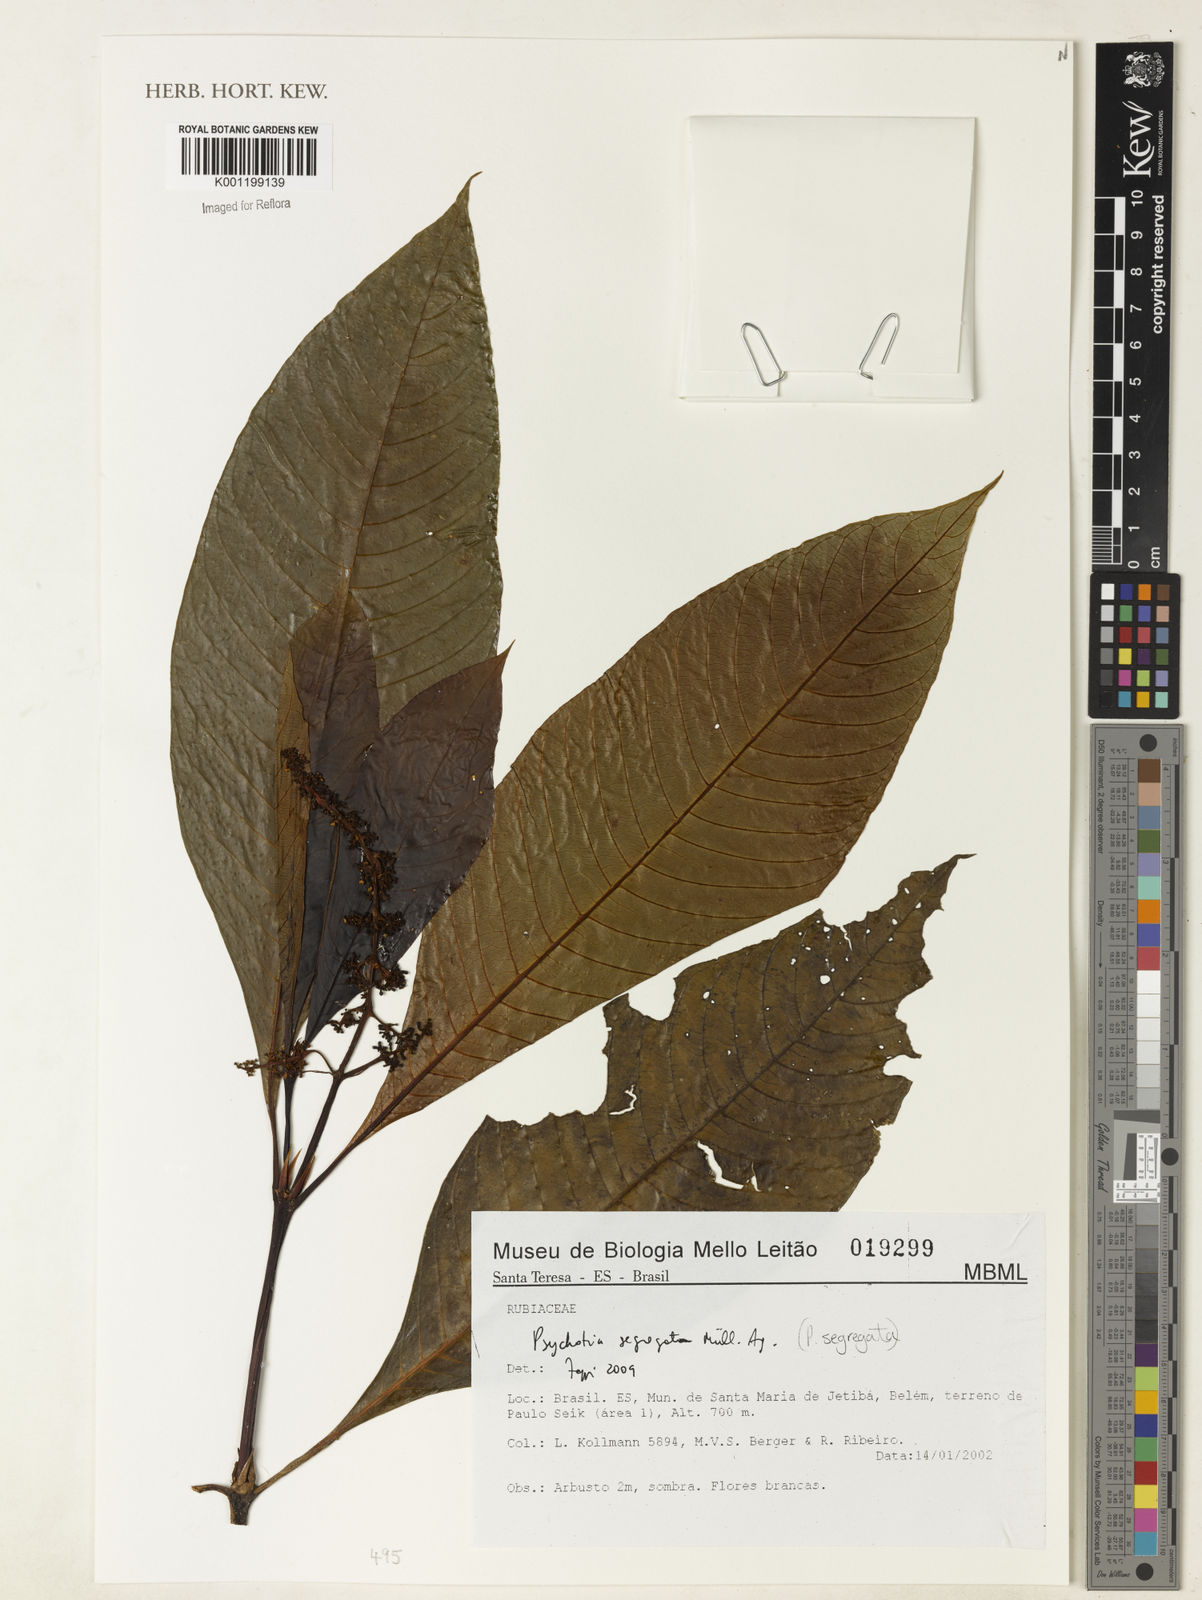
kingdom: Plantae
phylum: Tracheophyta
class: Magnoliopsida
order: Gentianales
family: Rubiaceae
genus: Psychotria
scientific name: Psychotria
